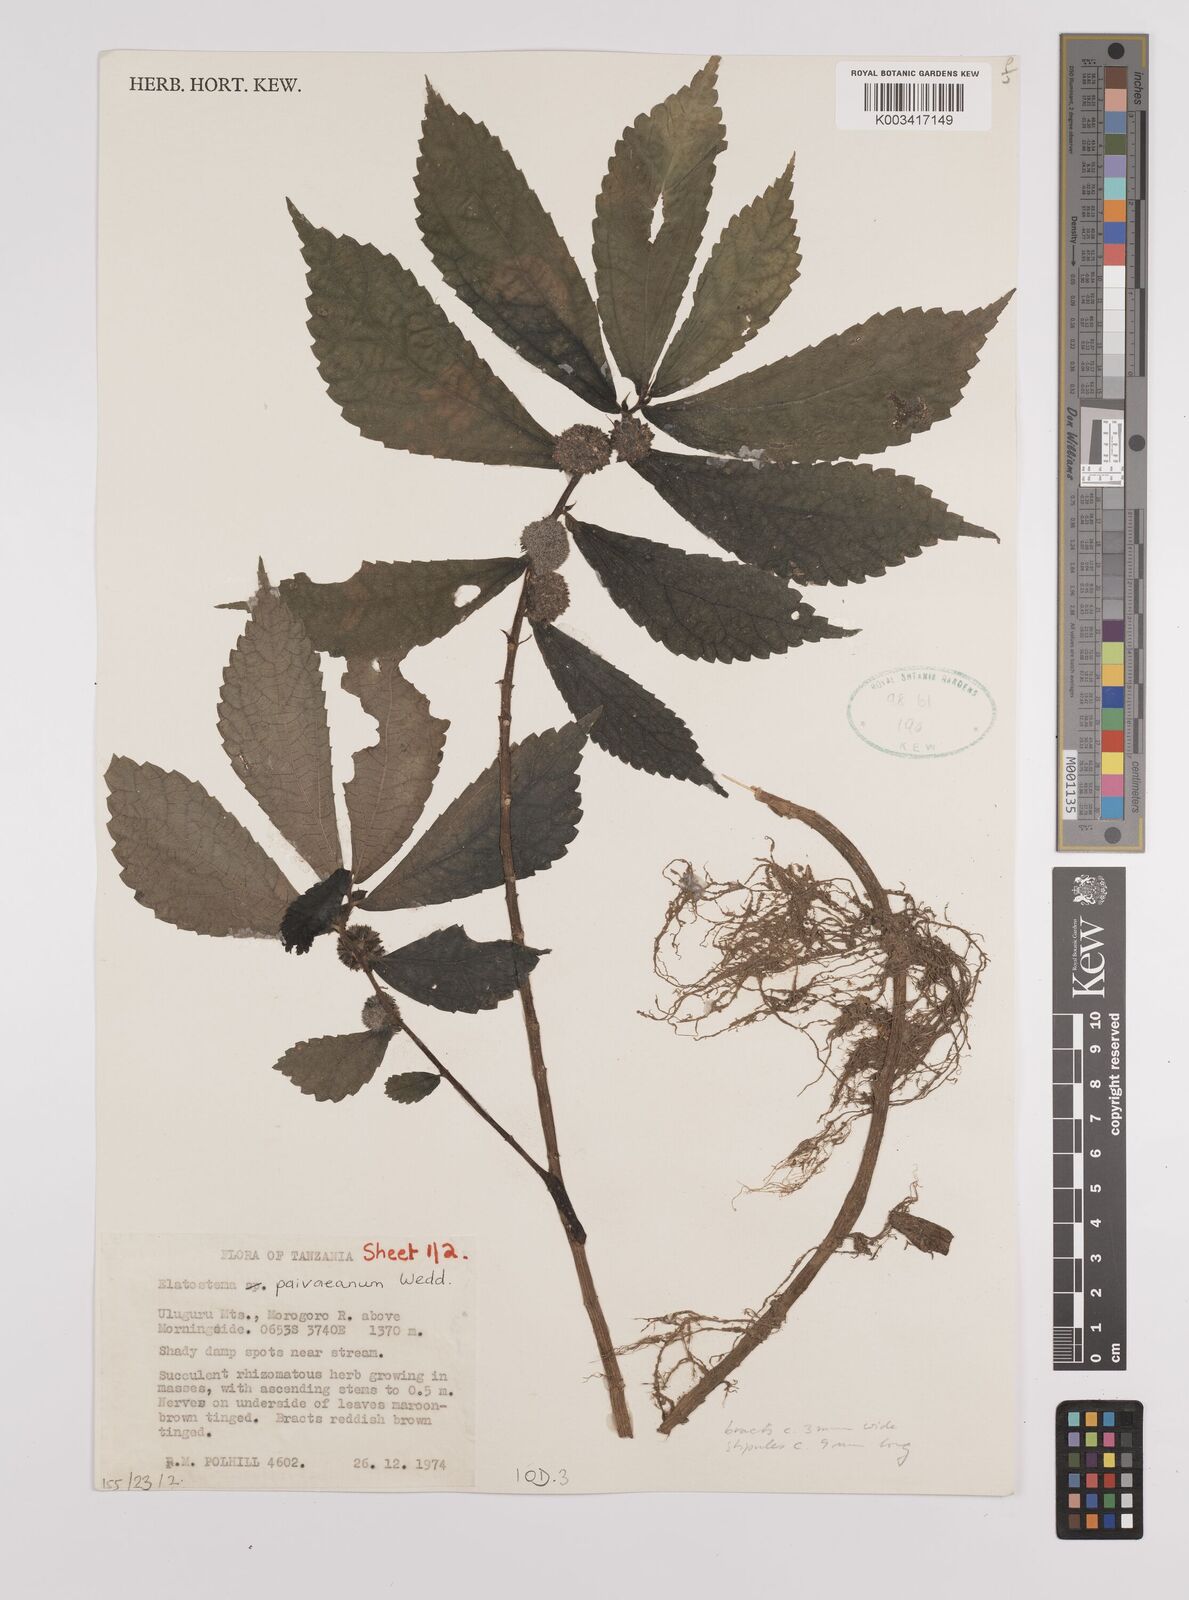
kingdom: Plantae
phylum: Tracheophyta
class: Magnoliopsida
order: Rosales
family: Urticaceae
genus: Elatostema
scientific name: Elatostema paivaeanum
